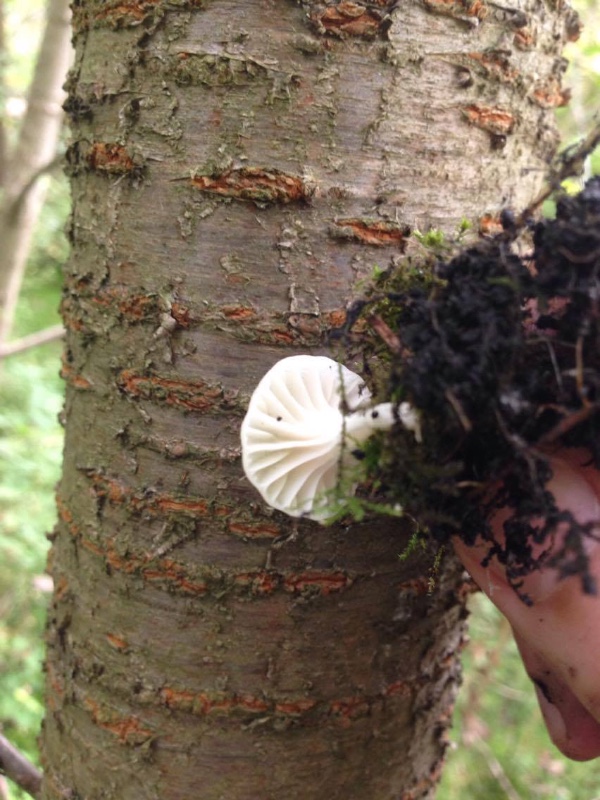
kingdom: Fungi
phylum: Basidiomycota
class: Agaricomycetes
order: Agaricales
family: Hygrophoraceae
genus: Cuphophyllus
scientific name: Cuphophyllus virgineus
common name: snehvid vokshat
